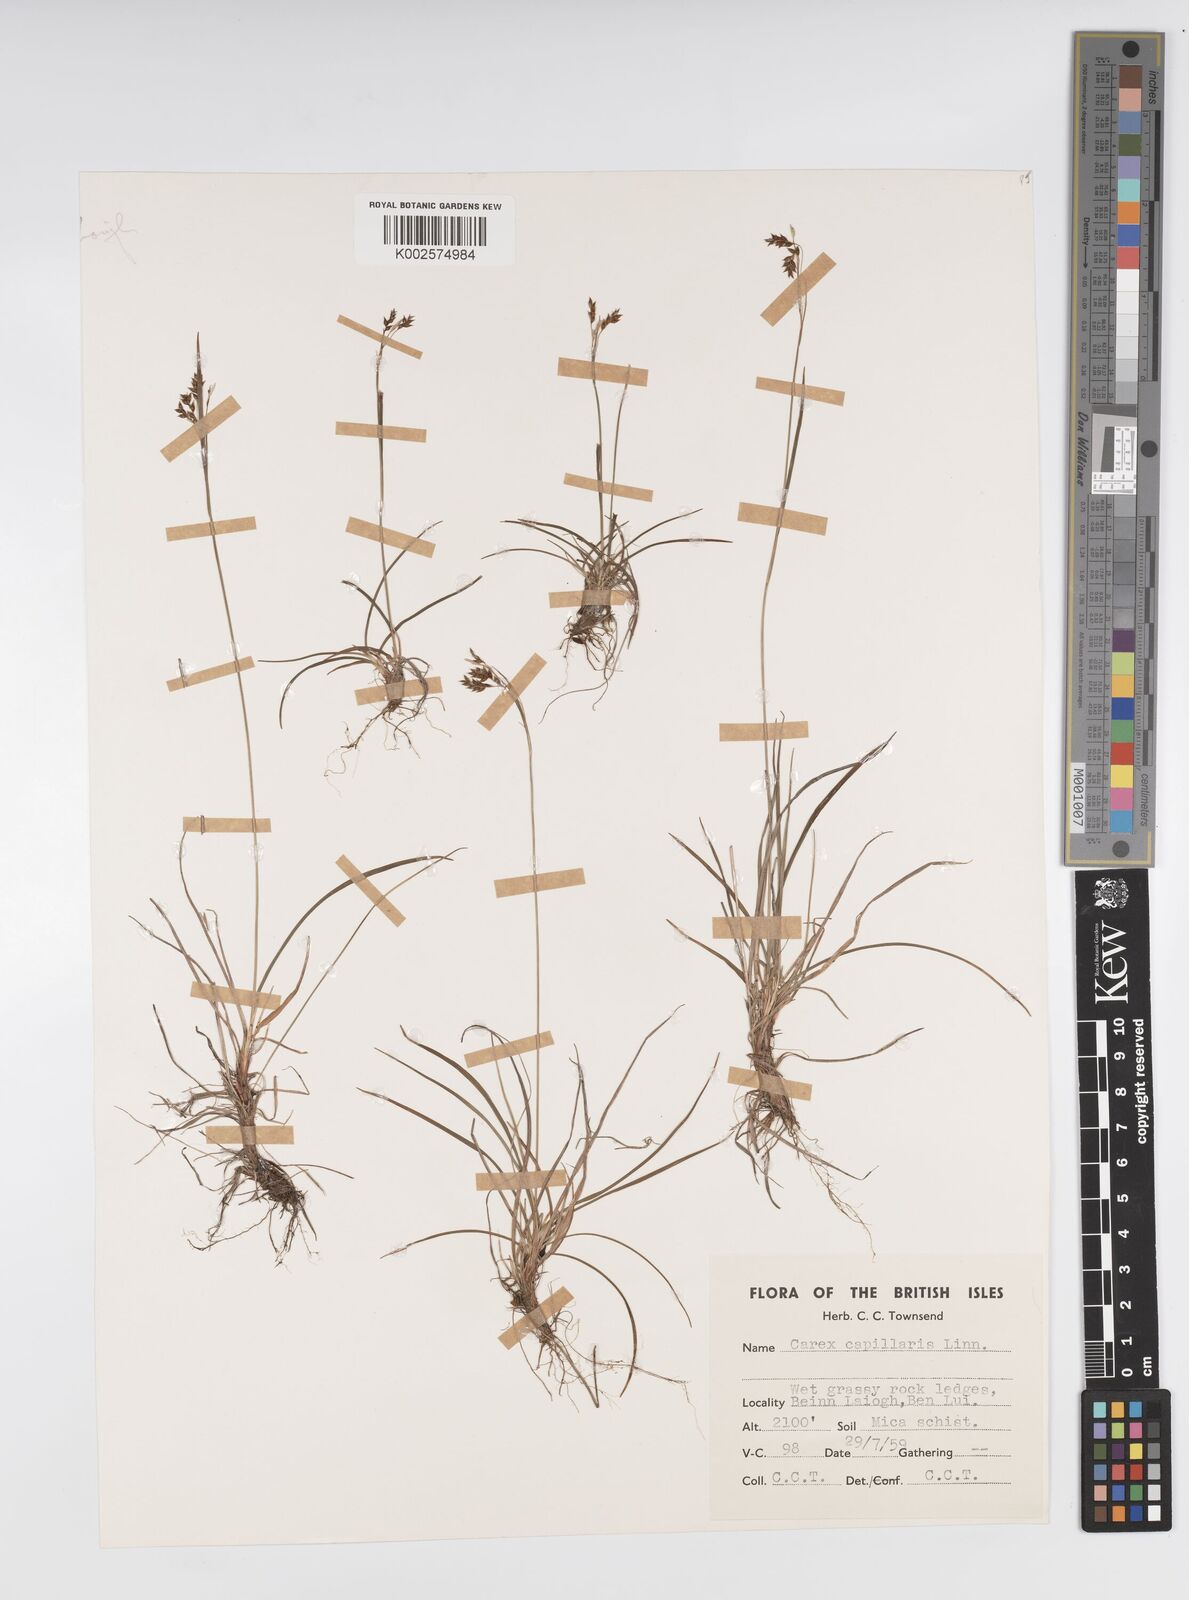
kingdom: Plantae
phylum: Tracheophyta
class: Liliopsida
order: Poales
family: Cyperaceae
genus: Carex
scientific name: Carex capillaris
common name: Hair sedge
